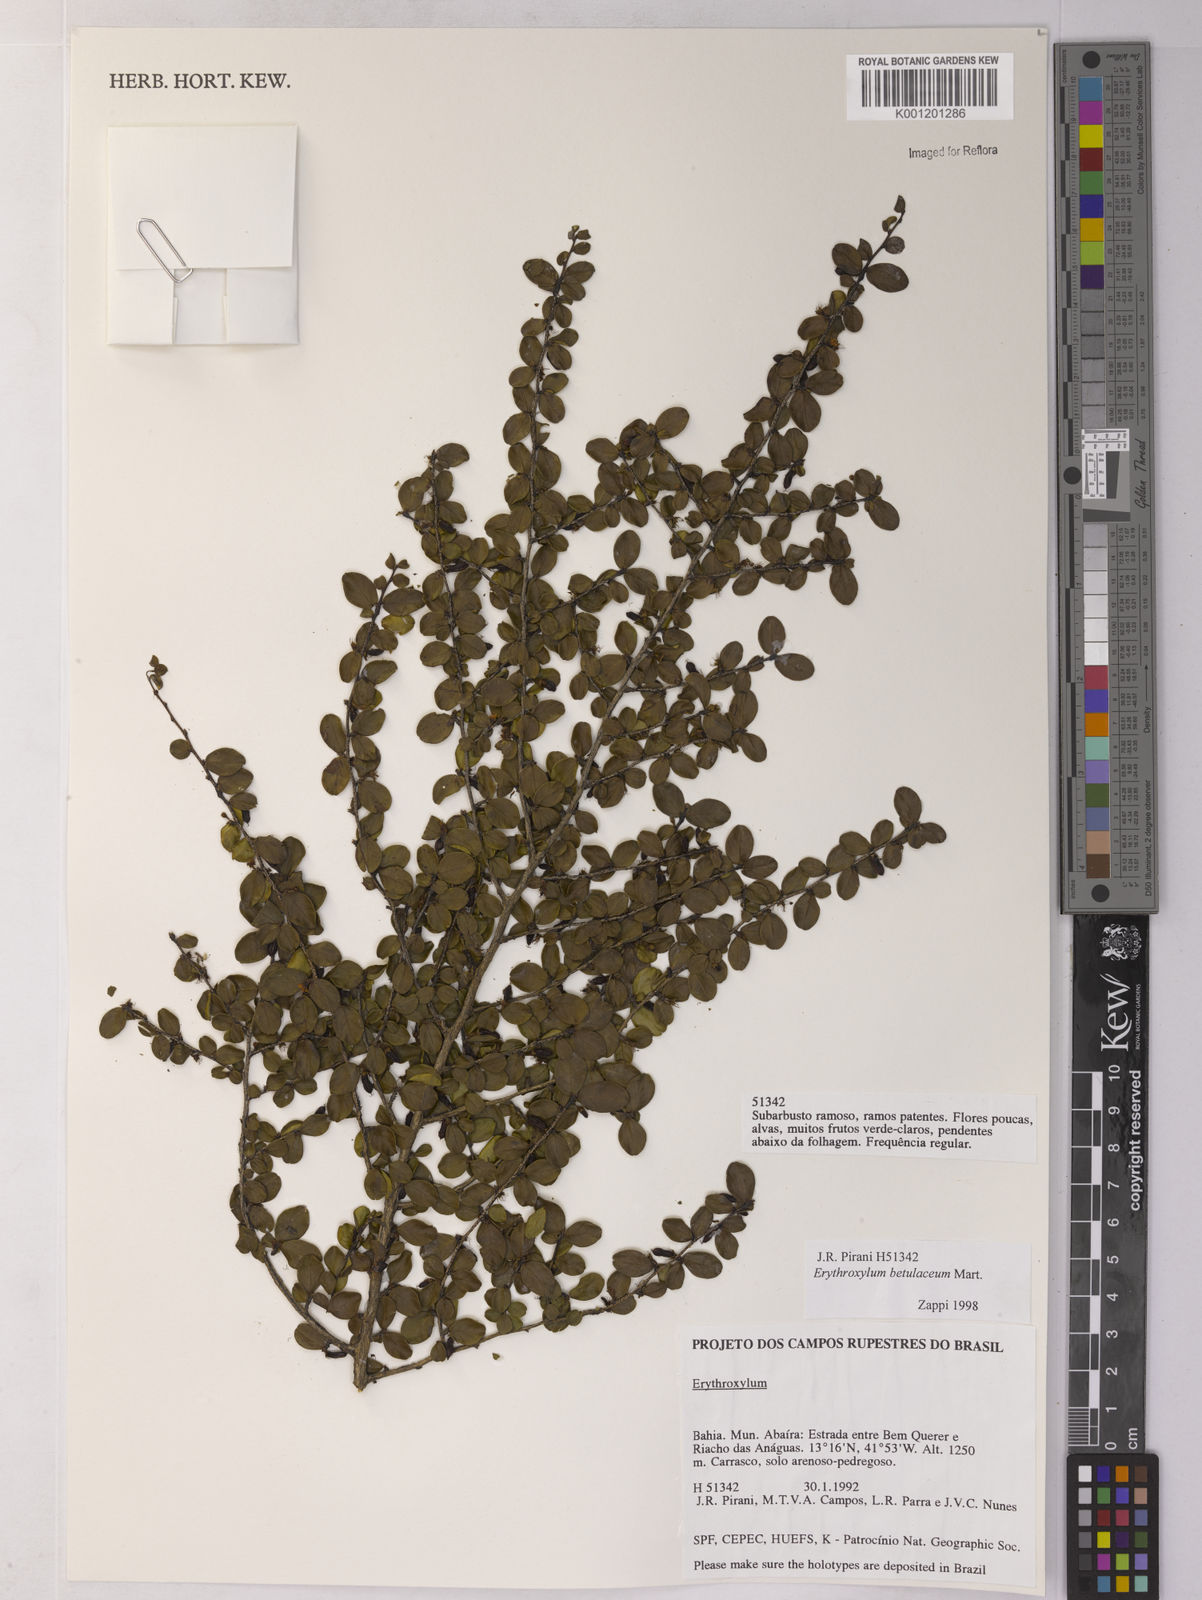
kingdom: Plantae
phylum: Tracheophyta
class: Magnoliopsida
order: Malpighiales
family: Erythroxylaceae
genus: Erythroxylum
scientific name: Erythroxylum betulaceum
